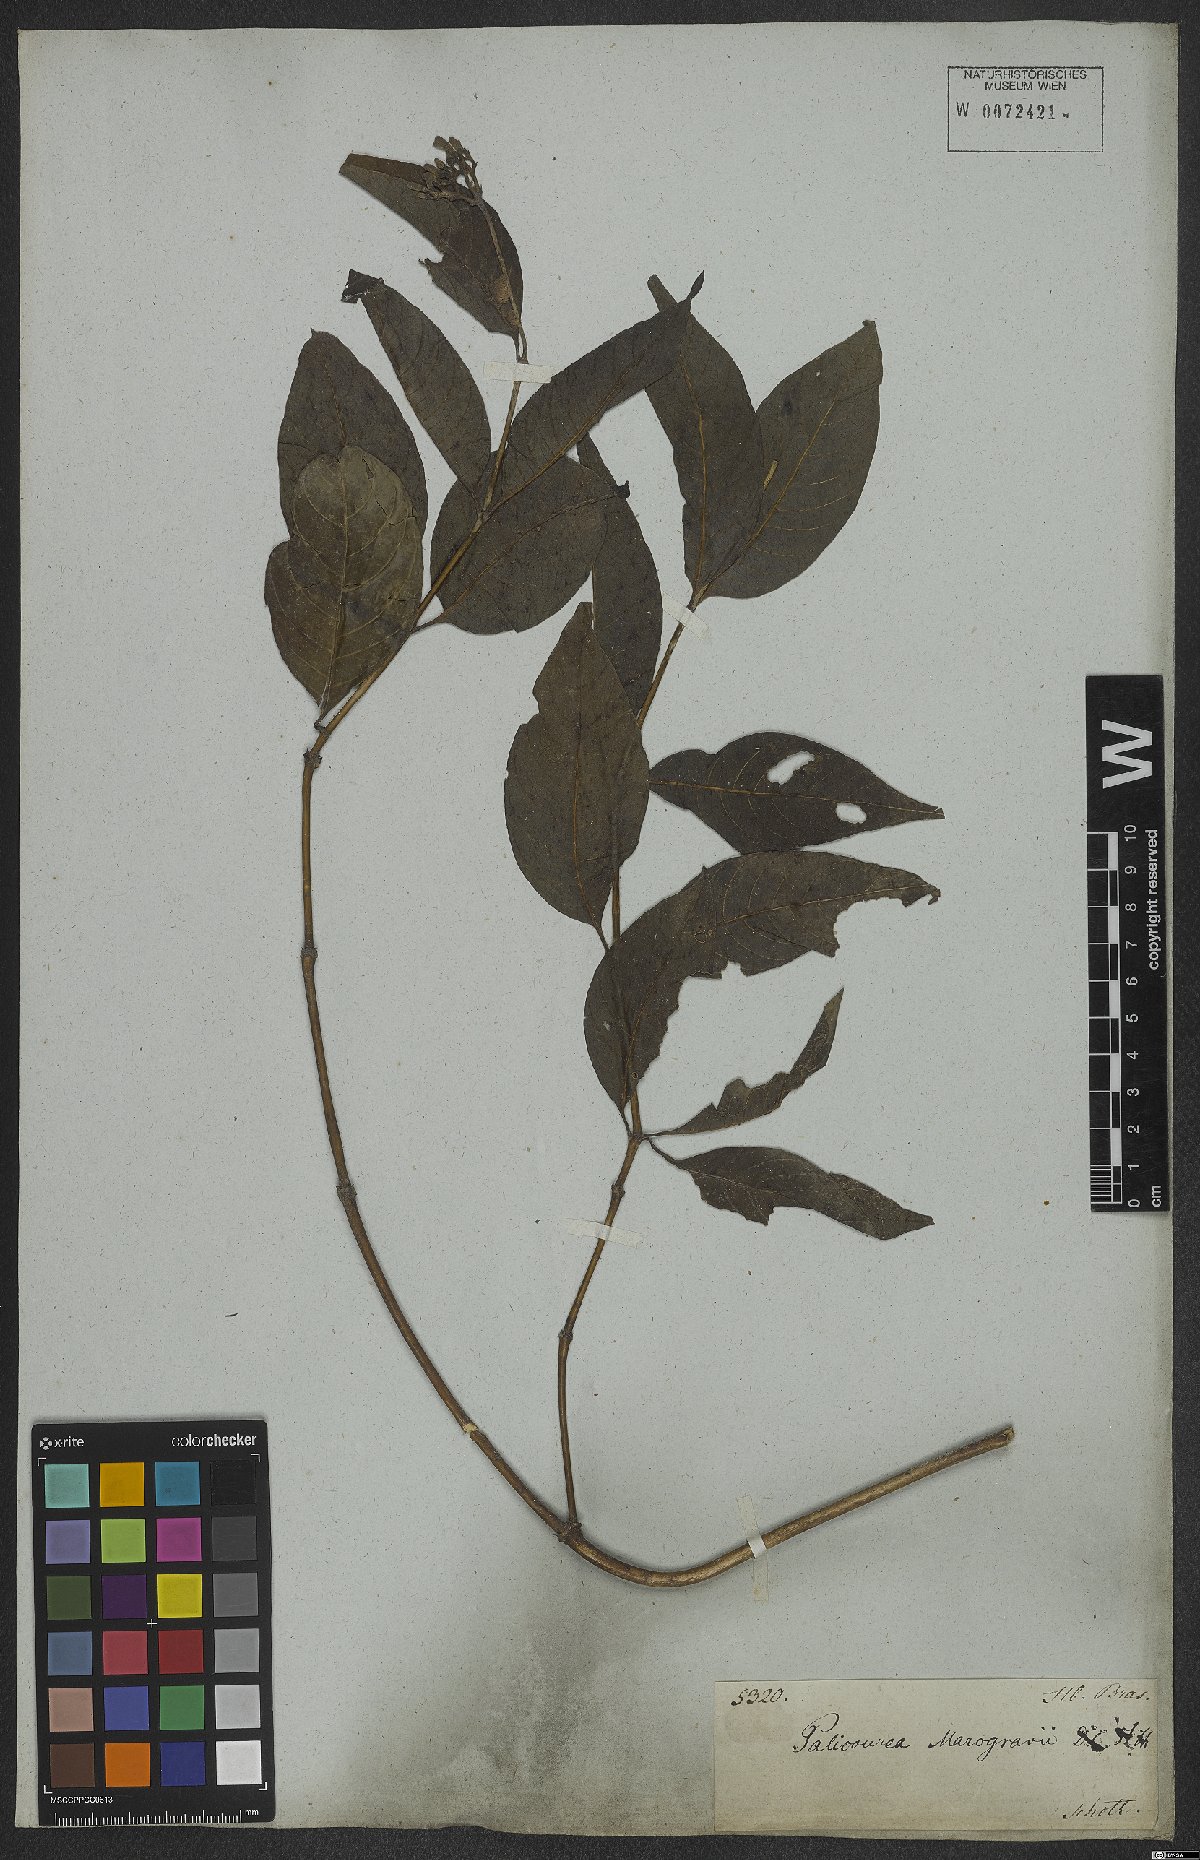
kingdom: Plantae
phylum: Tracheophyta
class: Magnoliopsida
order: Gentianales
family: Rubiaceae
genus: Palicourea
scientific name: Palicourea marcgravii
